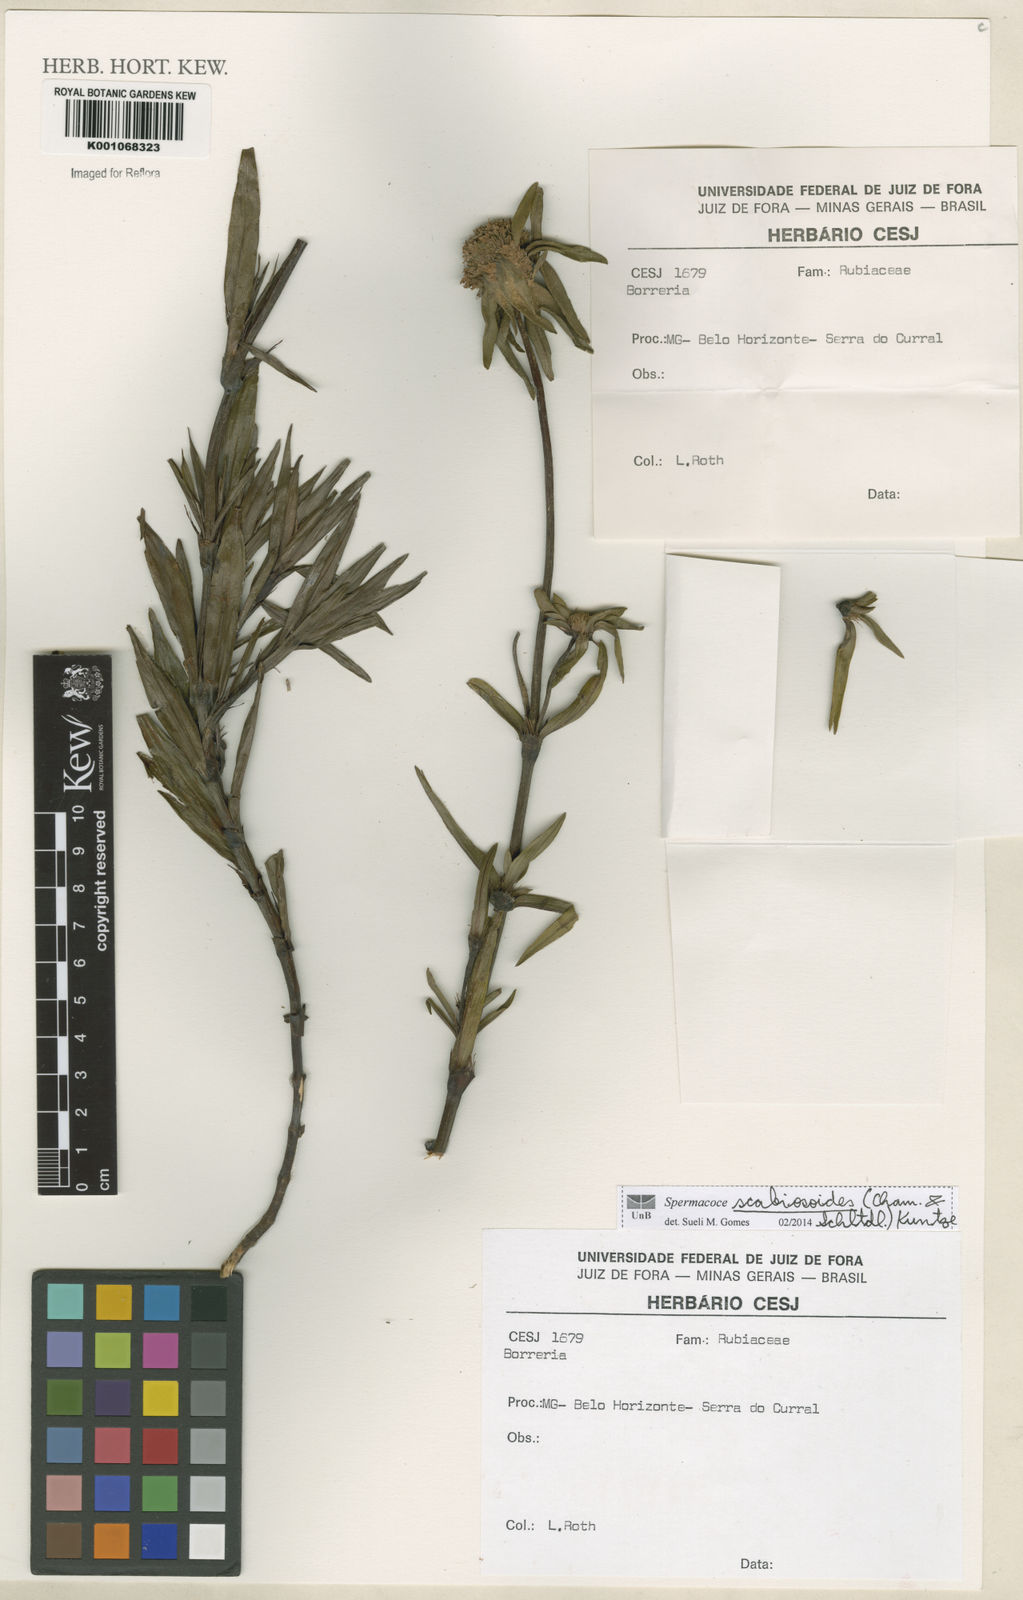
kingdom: Plantae
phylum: Tracheophyta
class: Magnoliopsida
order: Gentianales
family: Rubiaceae
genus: Spermacoce
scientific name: Spermacoce scabiosoides
